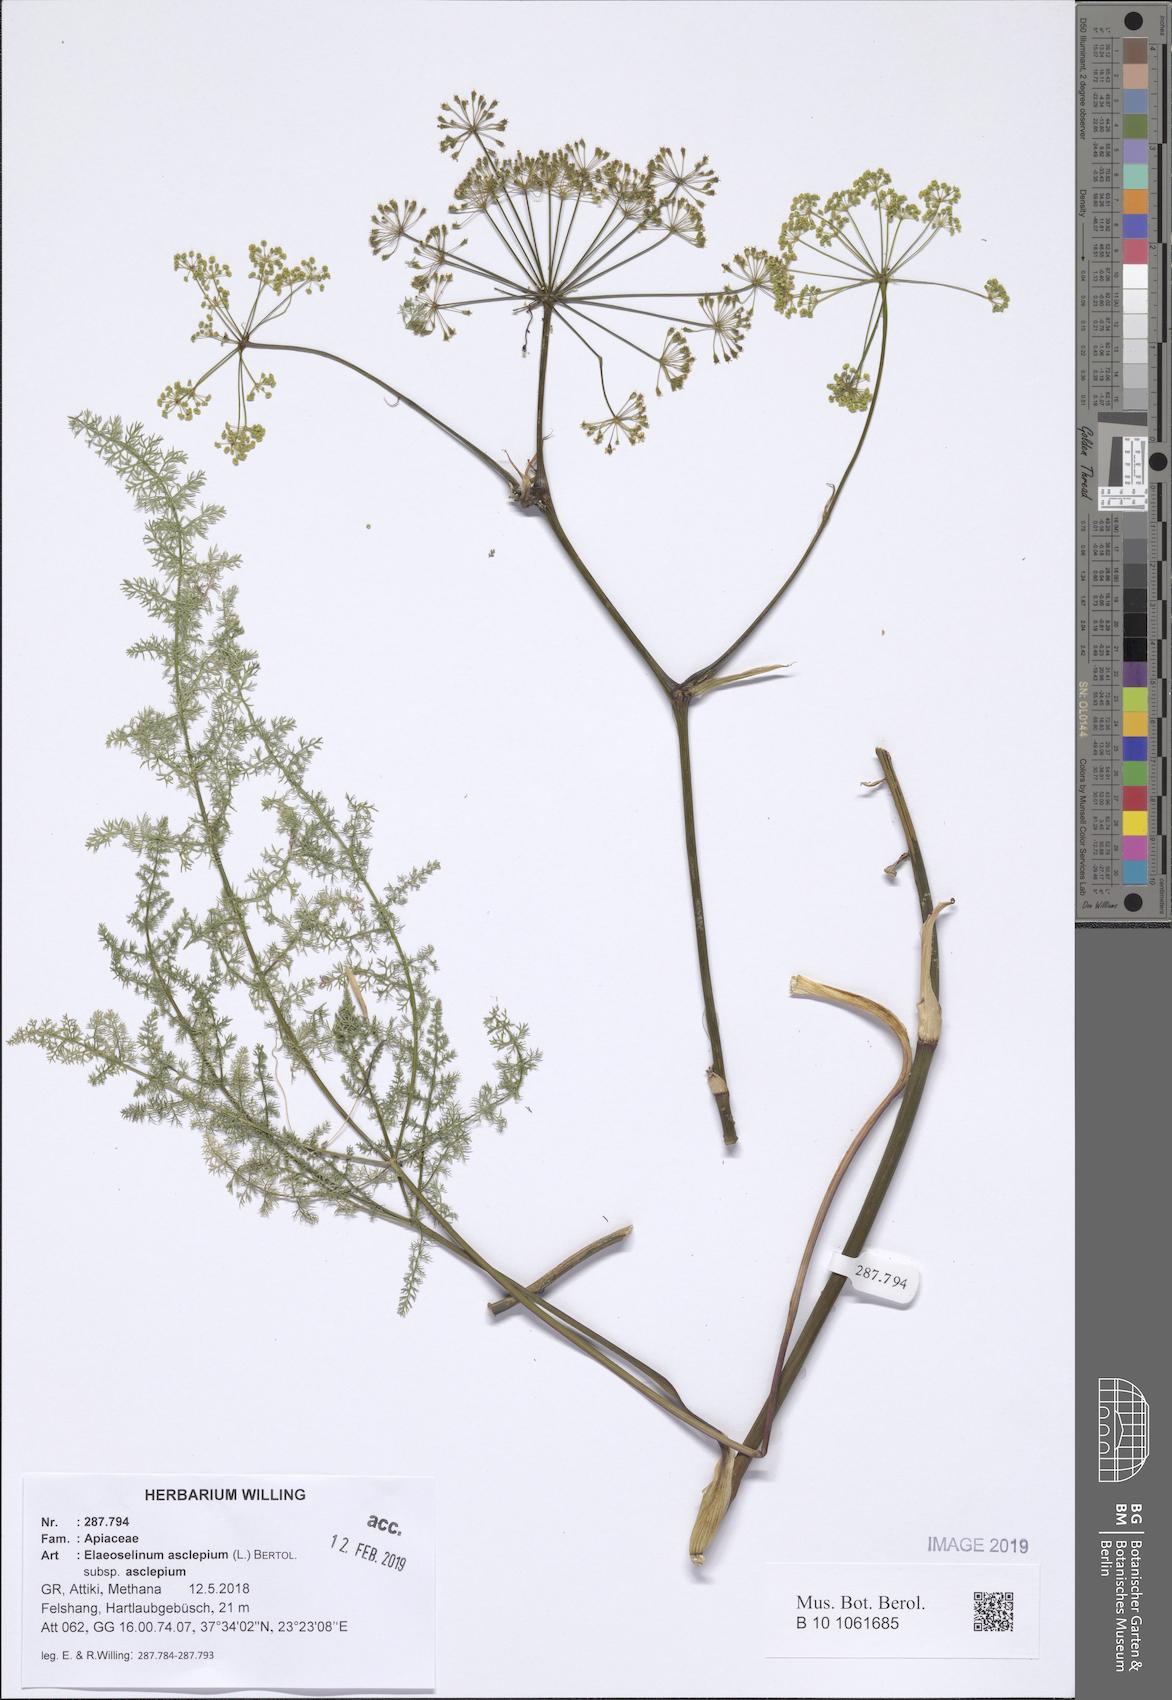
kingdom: Plantae
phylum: Tracheophyta
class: Magnoliopsida
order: Apiales
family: Apiaceae
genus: Thapsia
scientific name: Thapsia asclepium
